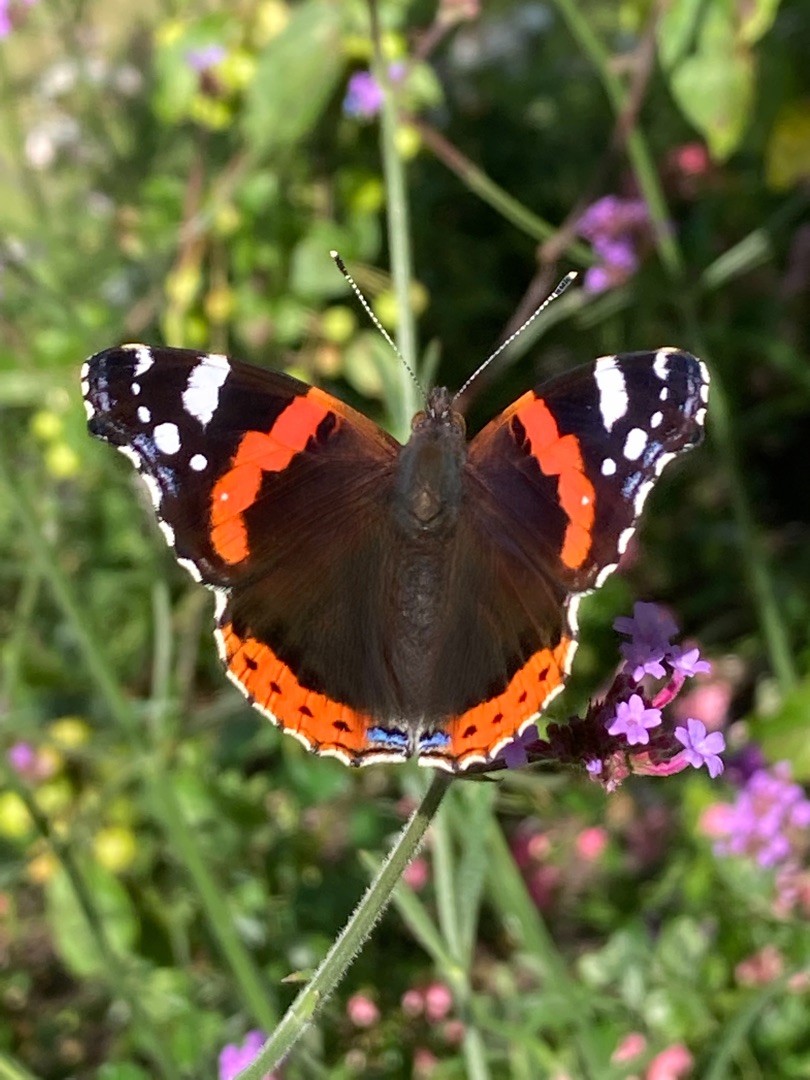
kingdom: Animalia
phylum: Arthropoda
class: Insecta
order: Lepidoptera
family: Nymphalidae
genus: Vanessa
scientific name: Vanessa atalanta
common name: Admiral
